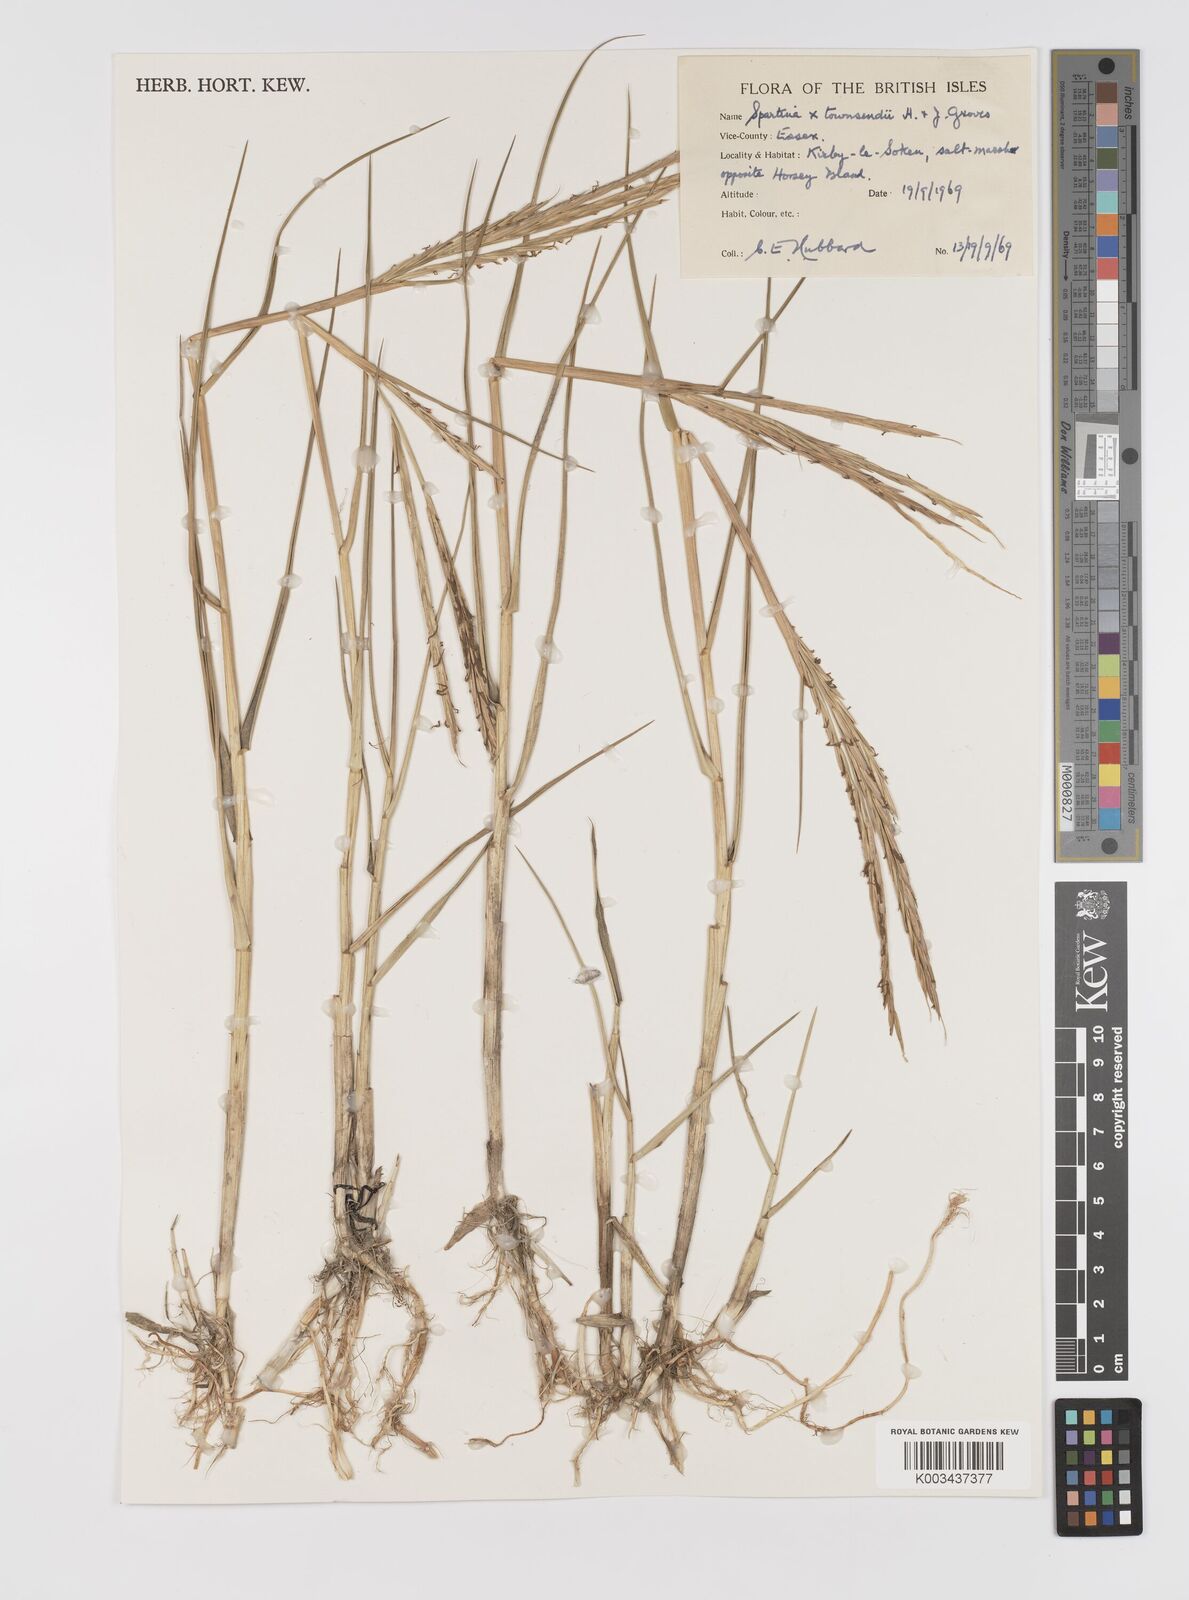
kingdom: Plantae
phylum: Tracheophyta
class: Liliopsida
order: Poales
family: Poaceae
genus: Sporobolus
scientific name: Sporobolus townsendii
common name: Townsend's cordgrass
